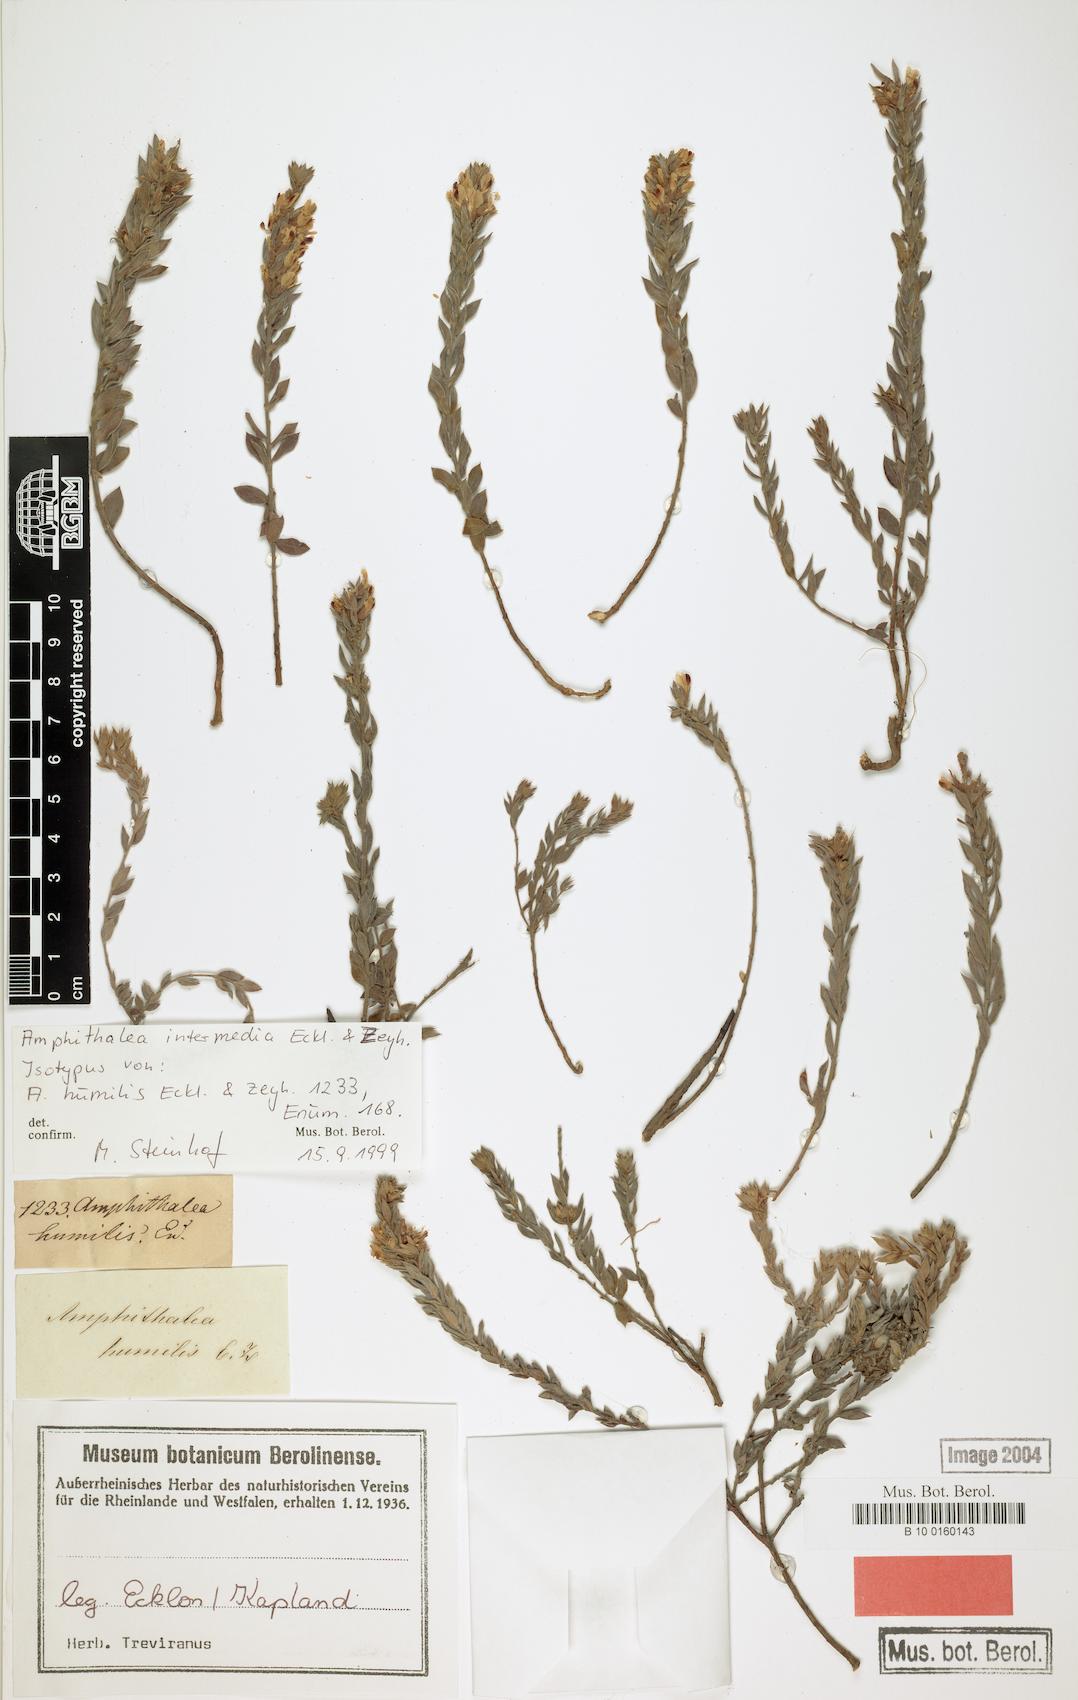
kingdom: Plantae
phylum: Tracheophyta
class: Magnoliopsida
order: Fabales
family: Fabaceae
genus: Amphithalea
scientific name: Amphithalea intermedia
